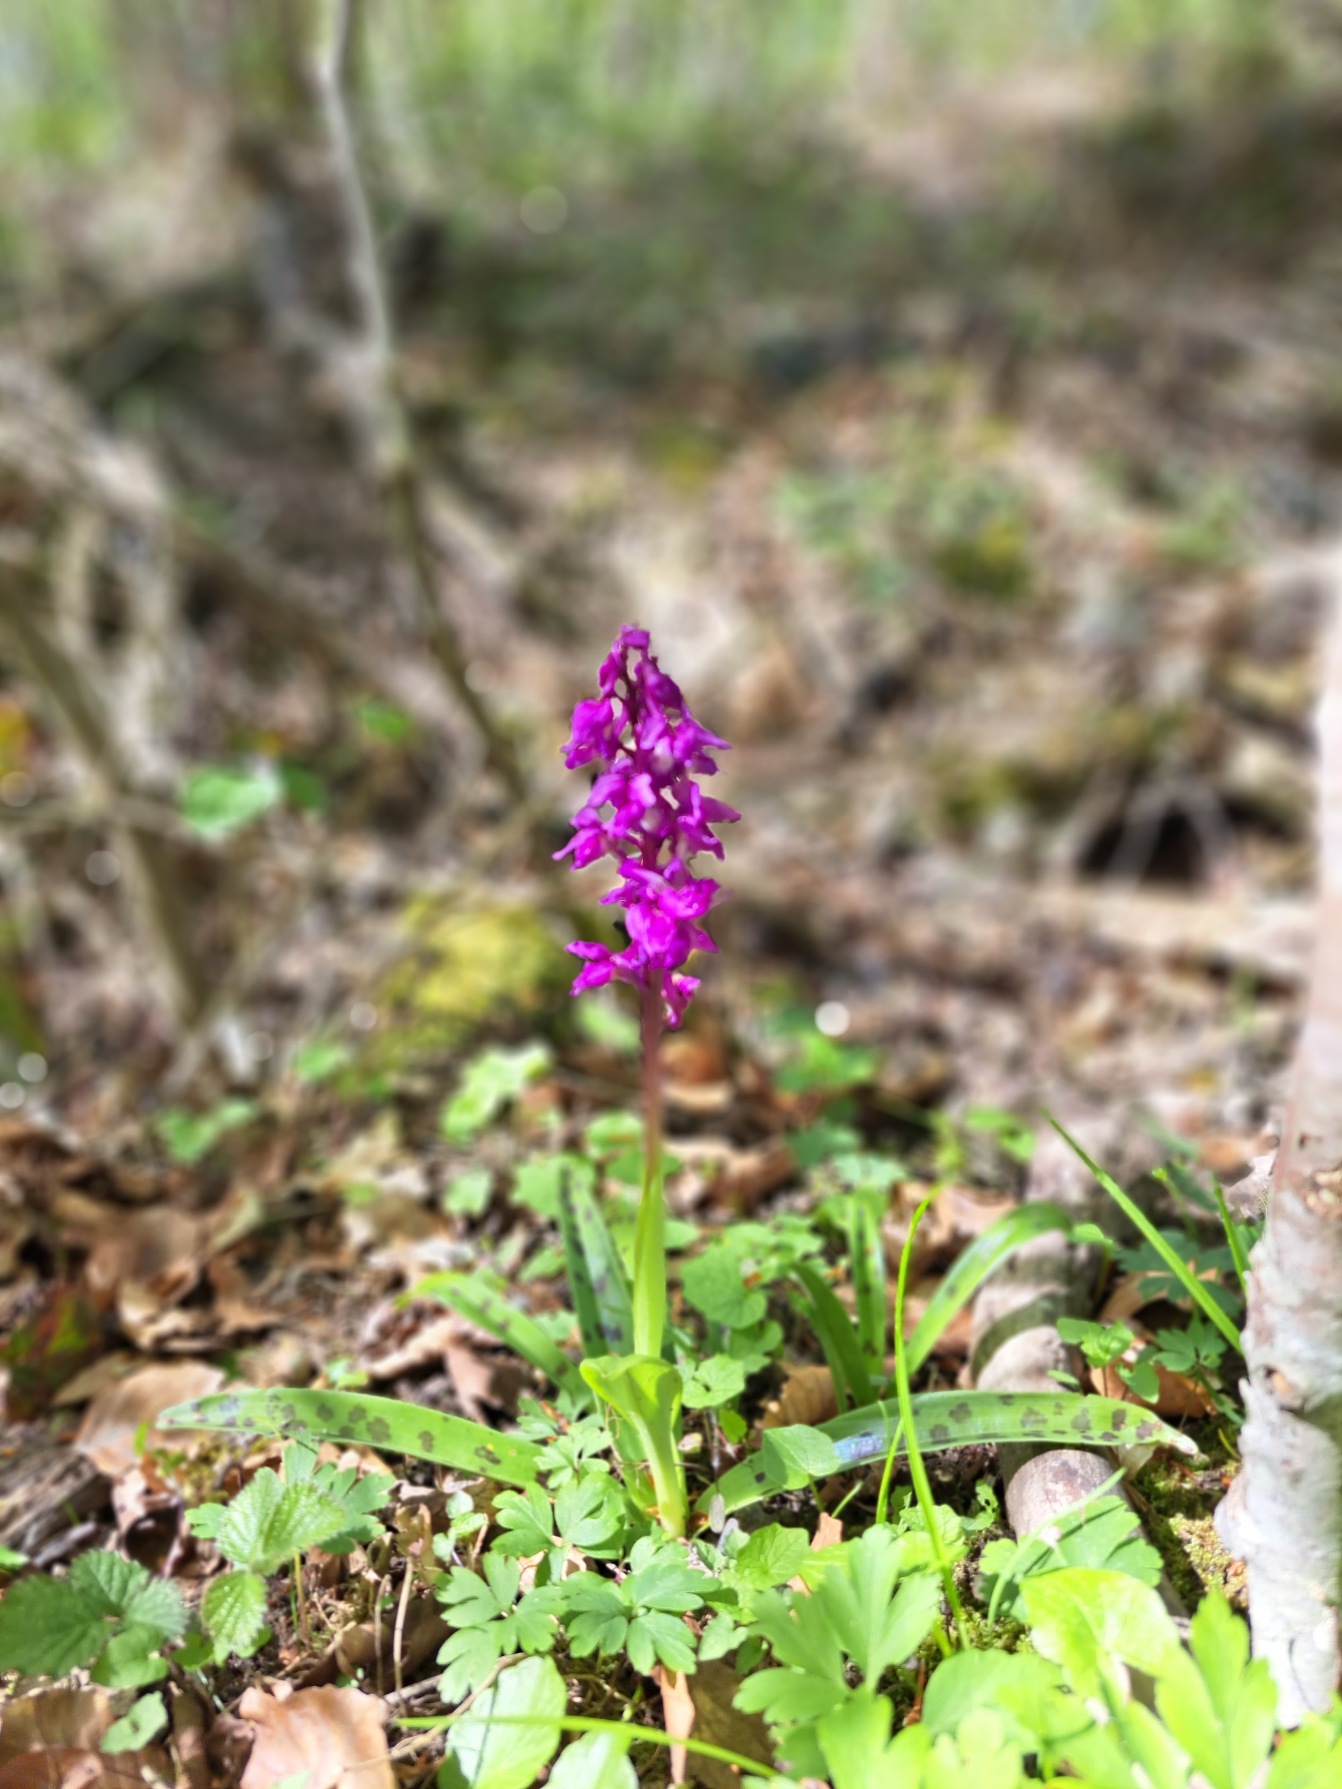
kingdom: Plantae
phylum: Tracheophyta
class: Liliopsida
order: Asparagales
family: Orchidaceae
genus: Orchis
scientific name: Orchis mascula
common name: Tyndakset gøgeurt
